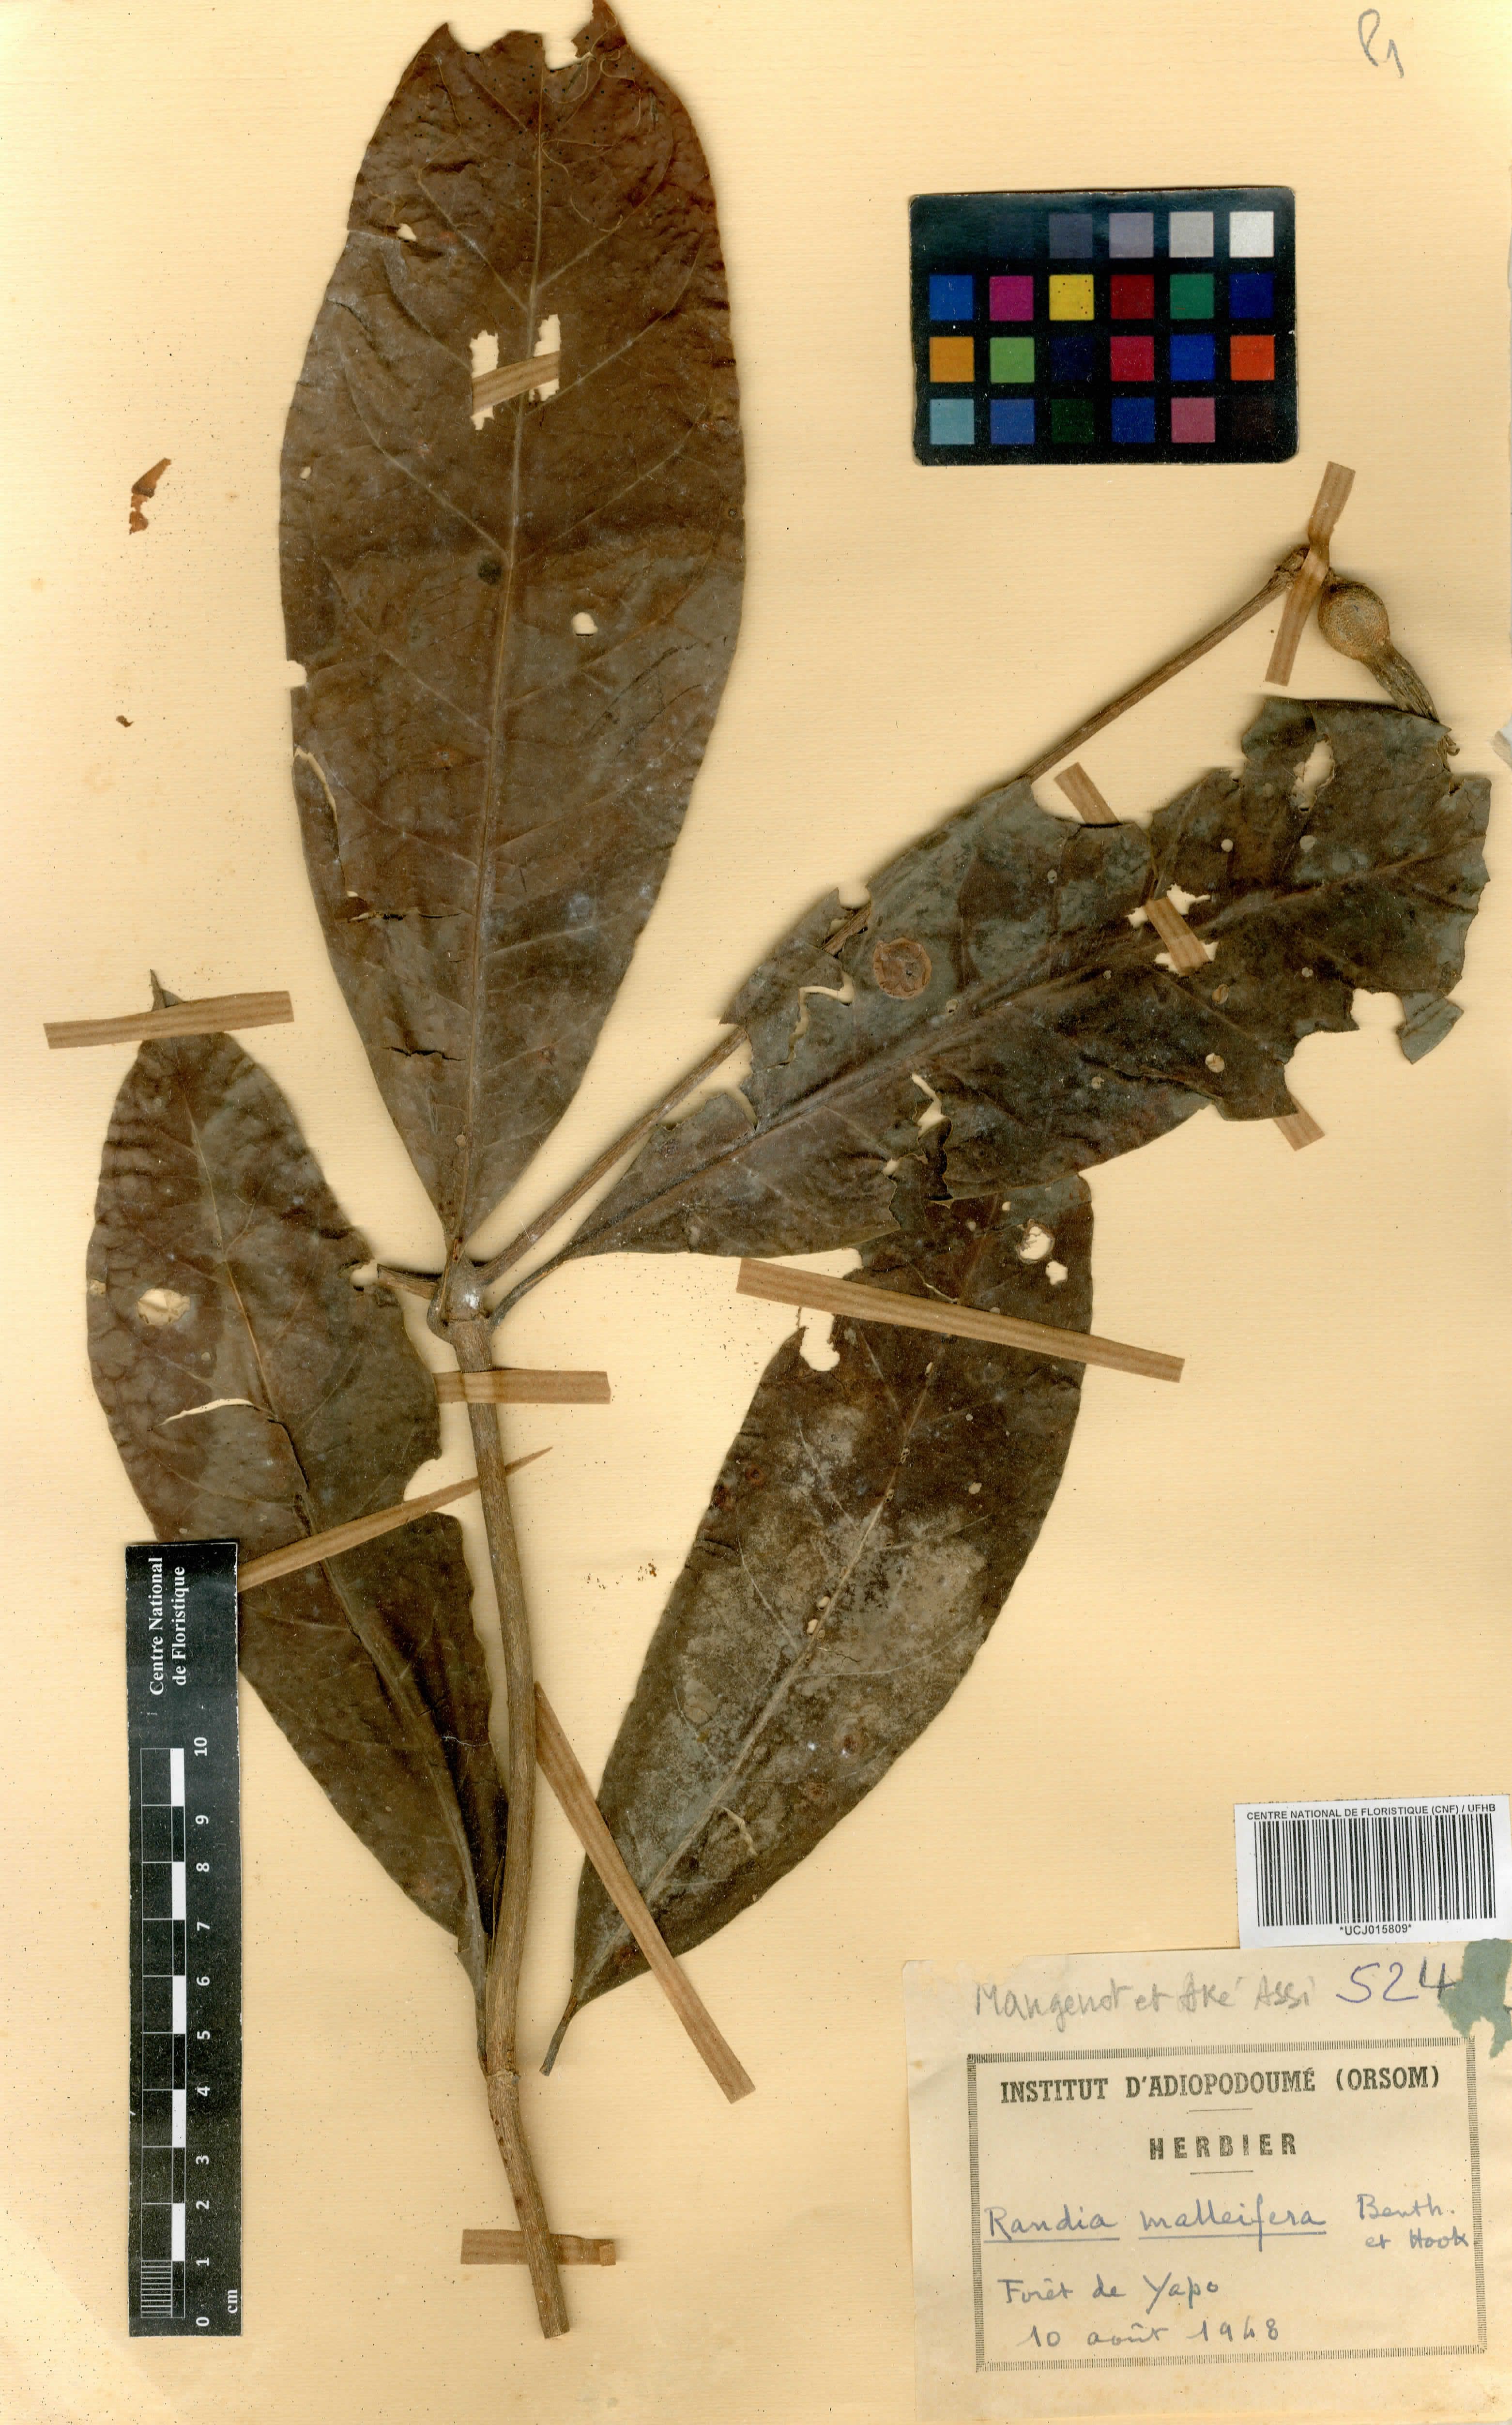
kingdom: Plantae
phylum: Tracheophyta
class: Magnoliopsida
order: Gentianales
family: Rubiaceae
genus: Rothmannia
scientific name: Rothmannia whitfieldii
